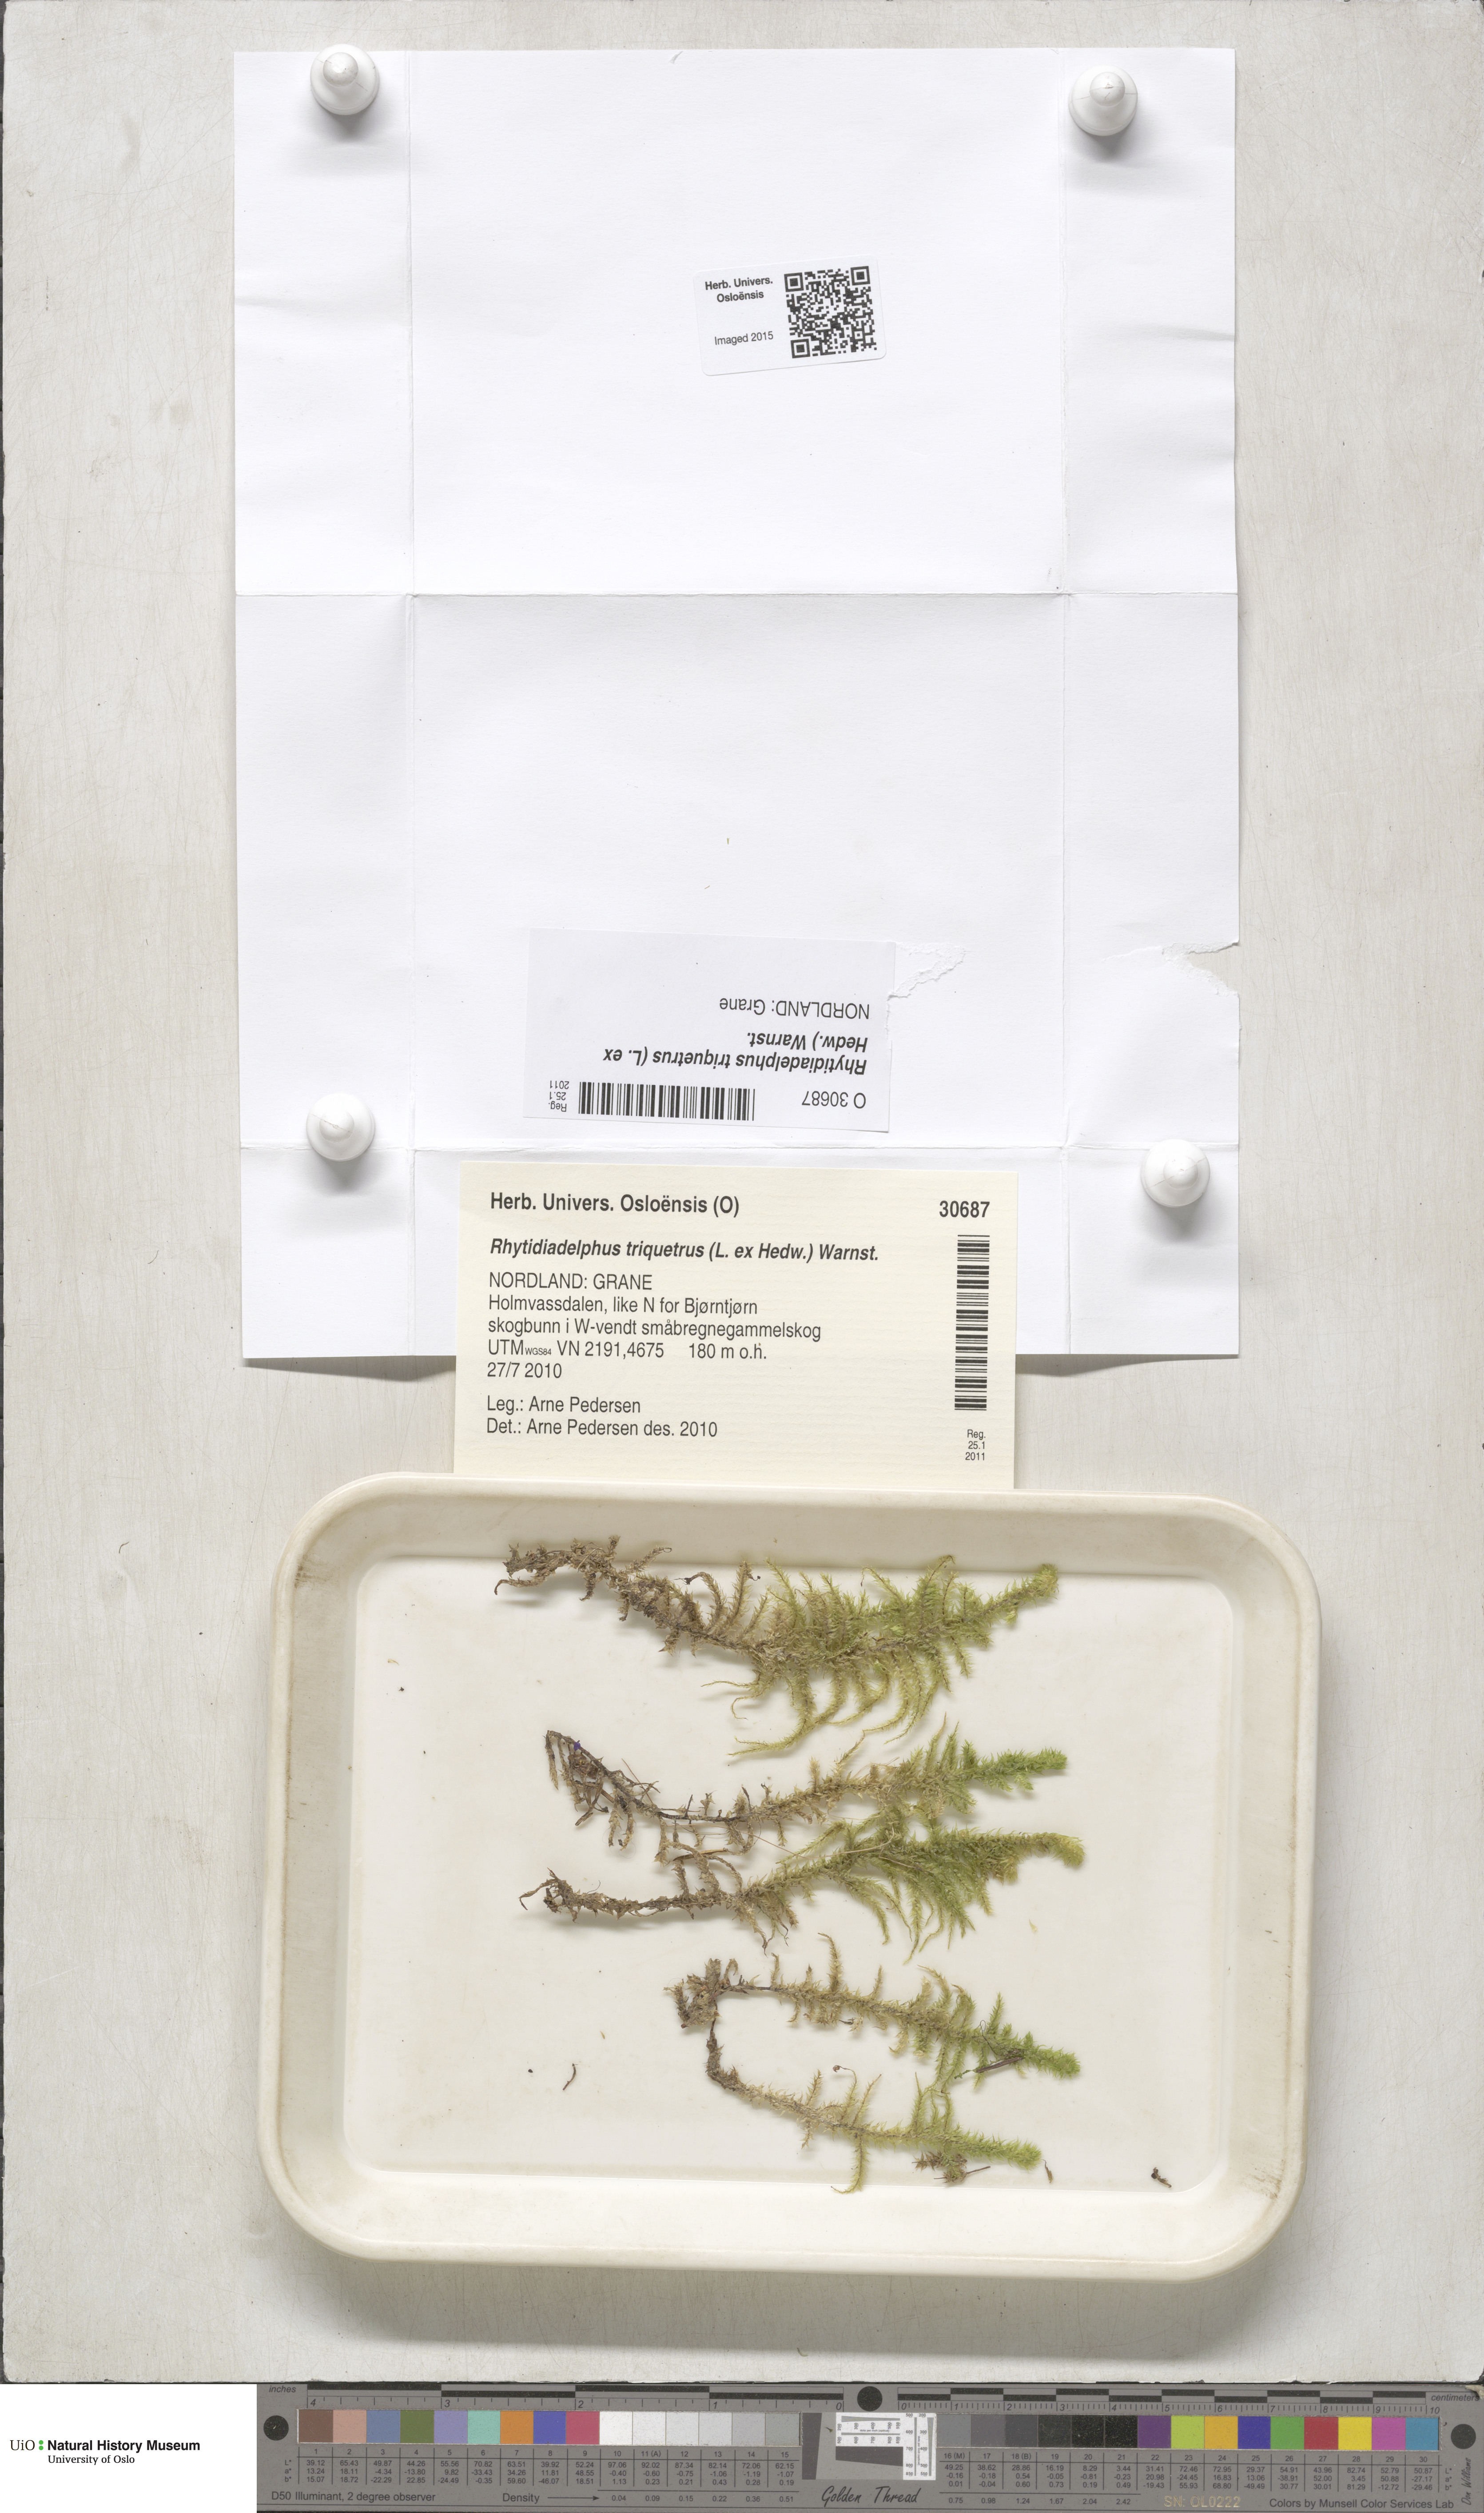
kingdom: Plantae
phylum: Bryophyta
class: Bryopsida
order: Hypnales
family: Hylocomiaceae
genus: Hylocomiadelphus
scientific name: Hylocomiadelphus triquetrus
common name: Rough goose neck moss
